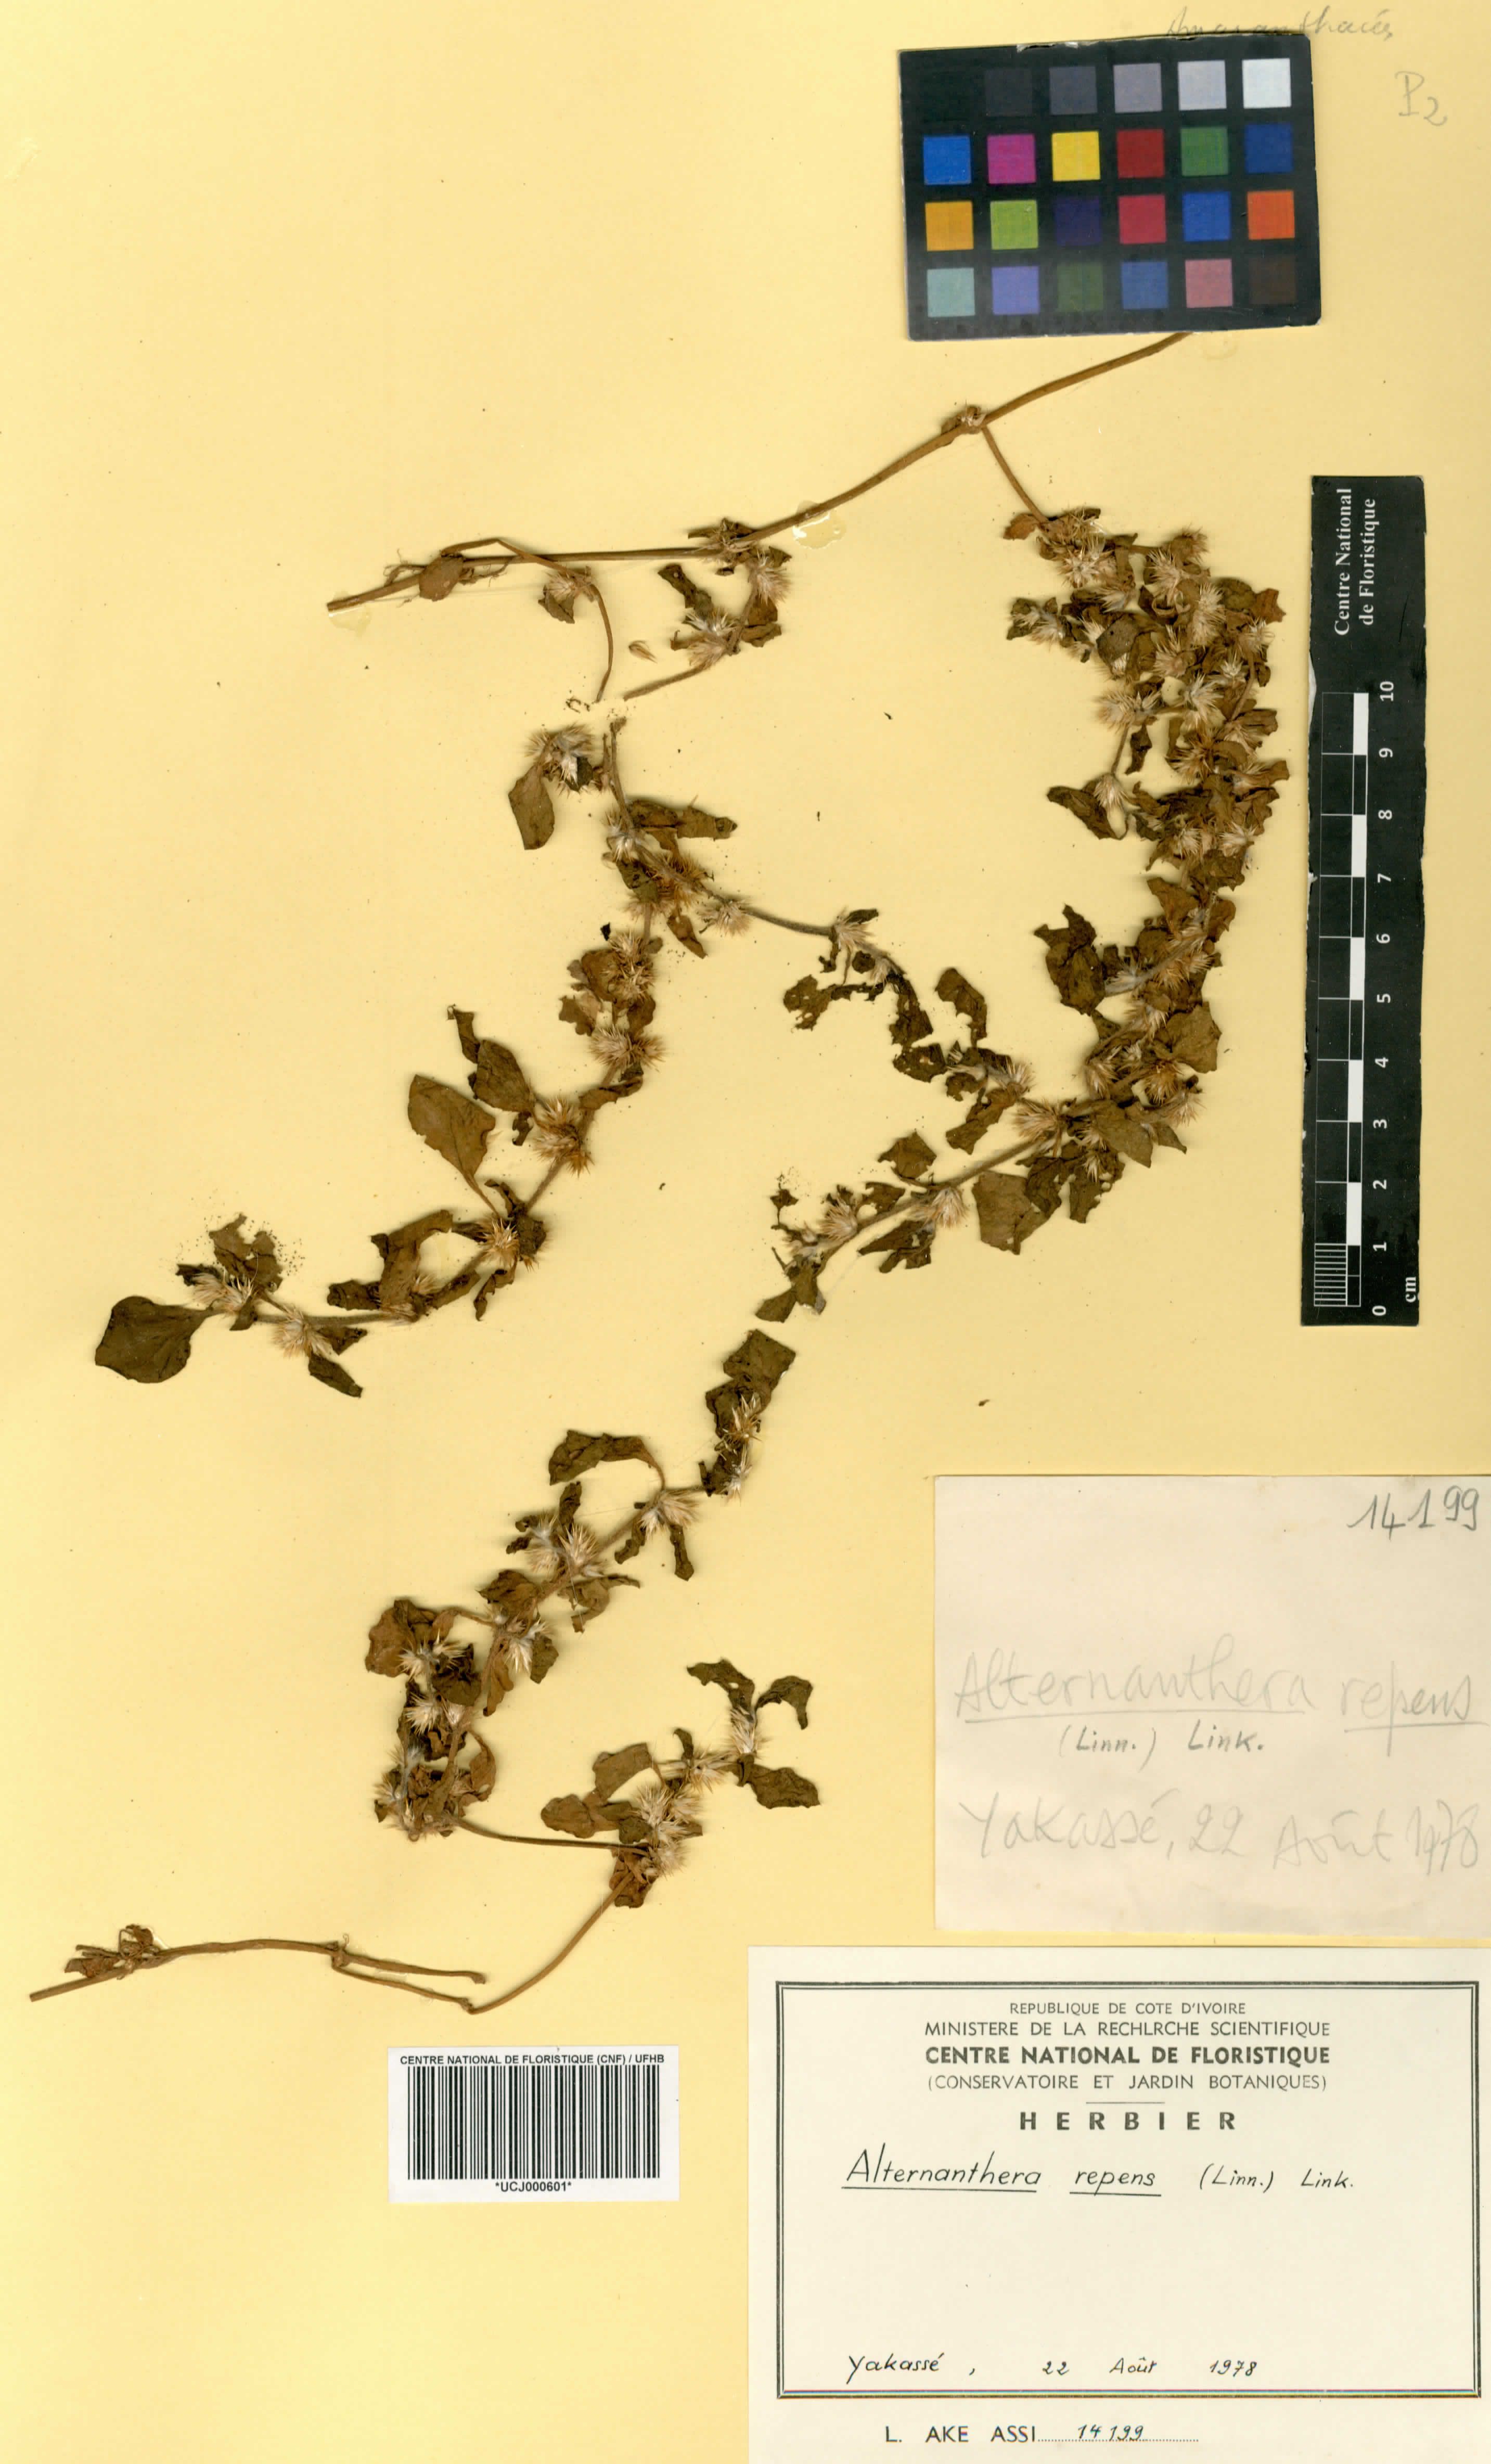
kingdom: Plantae
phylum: Tracheophyta
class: Magnoliopsida
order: Caryophyllales
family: Amaranthaceae
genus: Alternanthera
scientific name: Alternanthera
